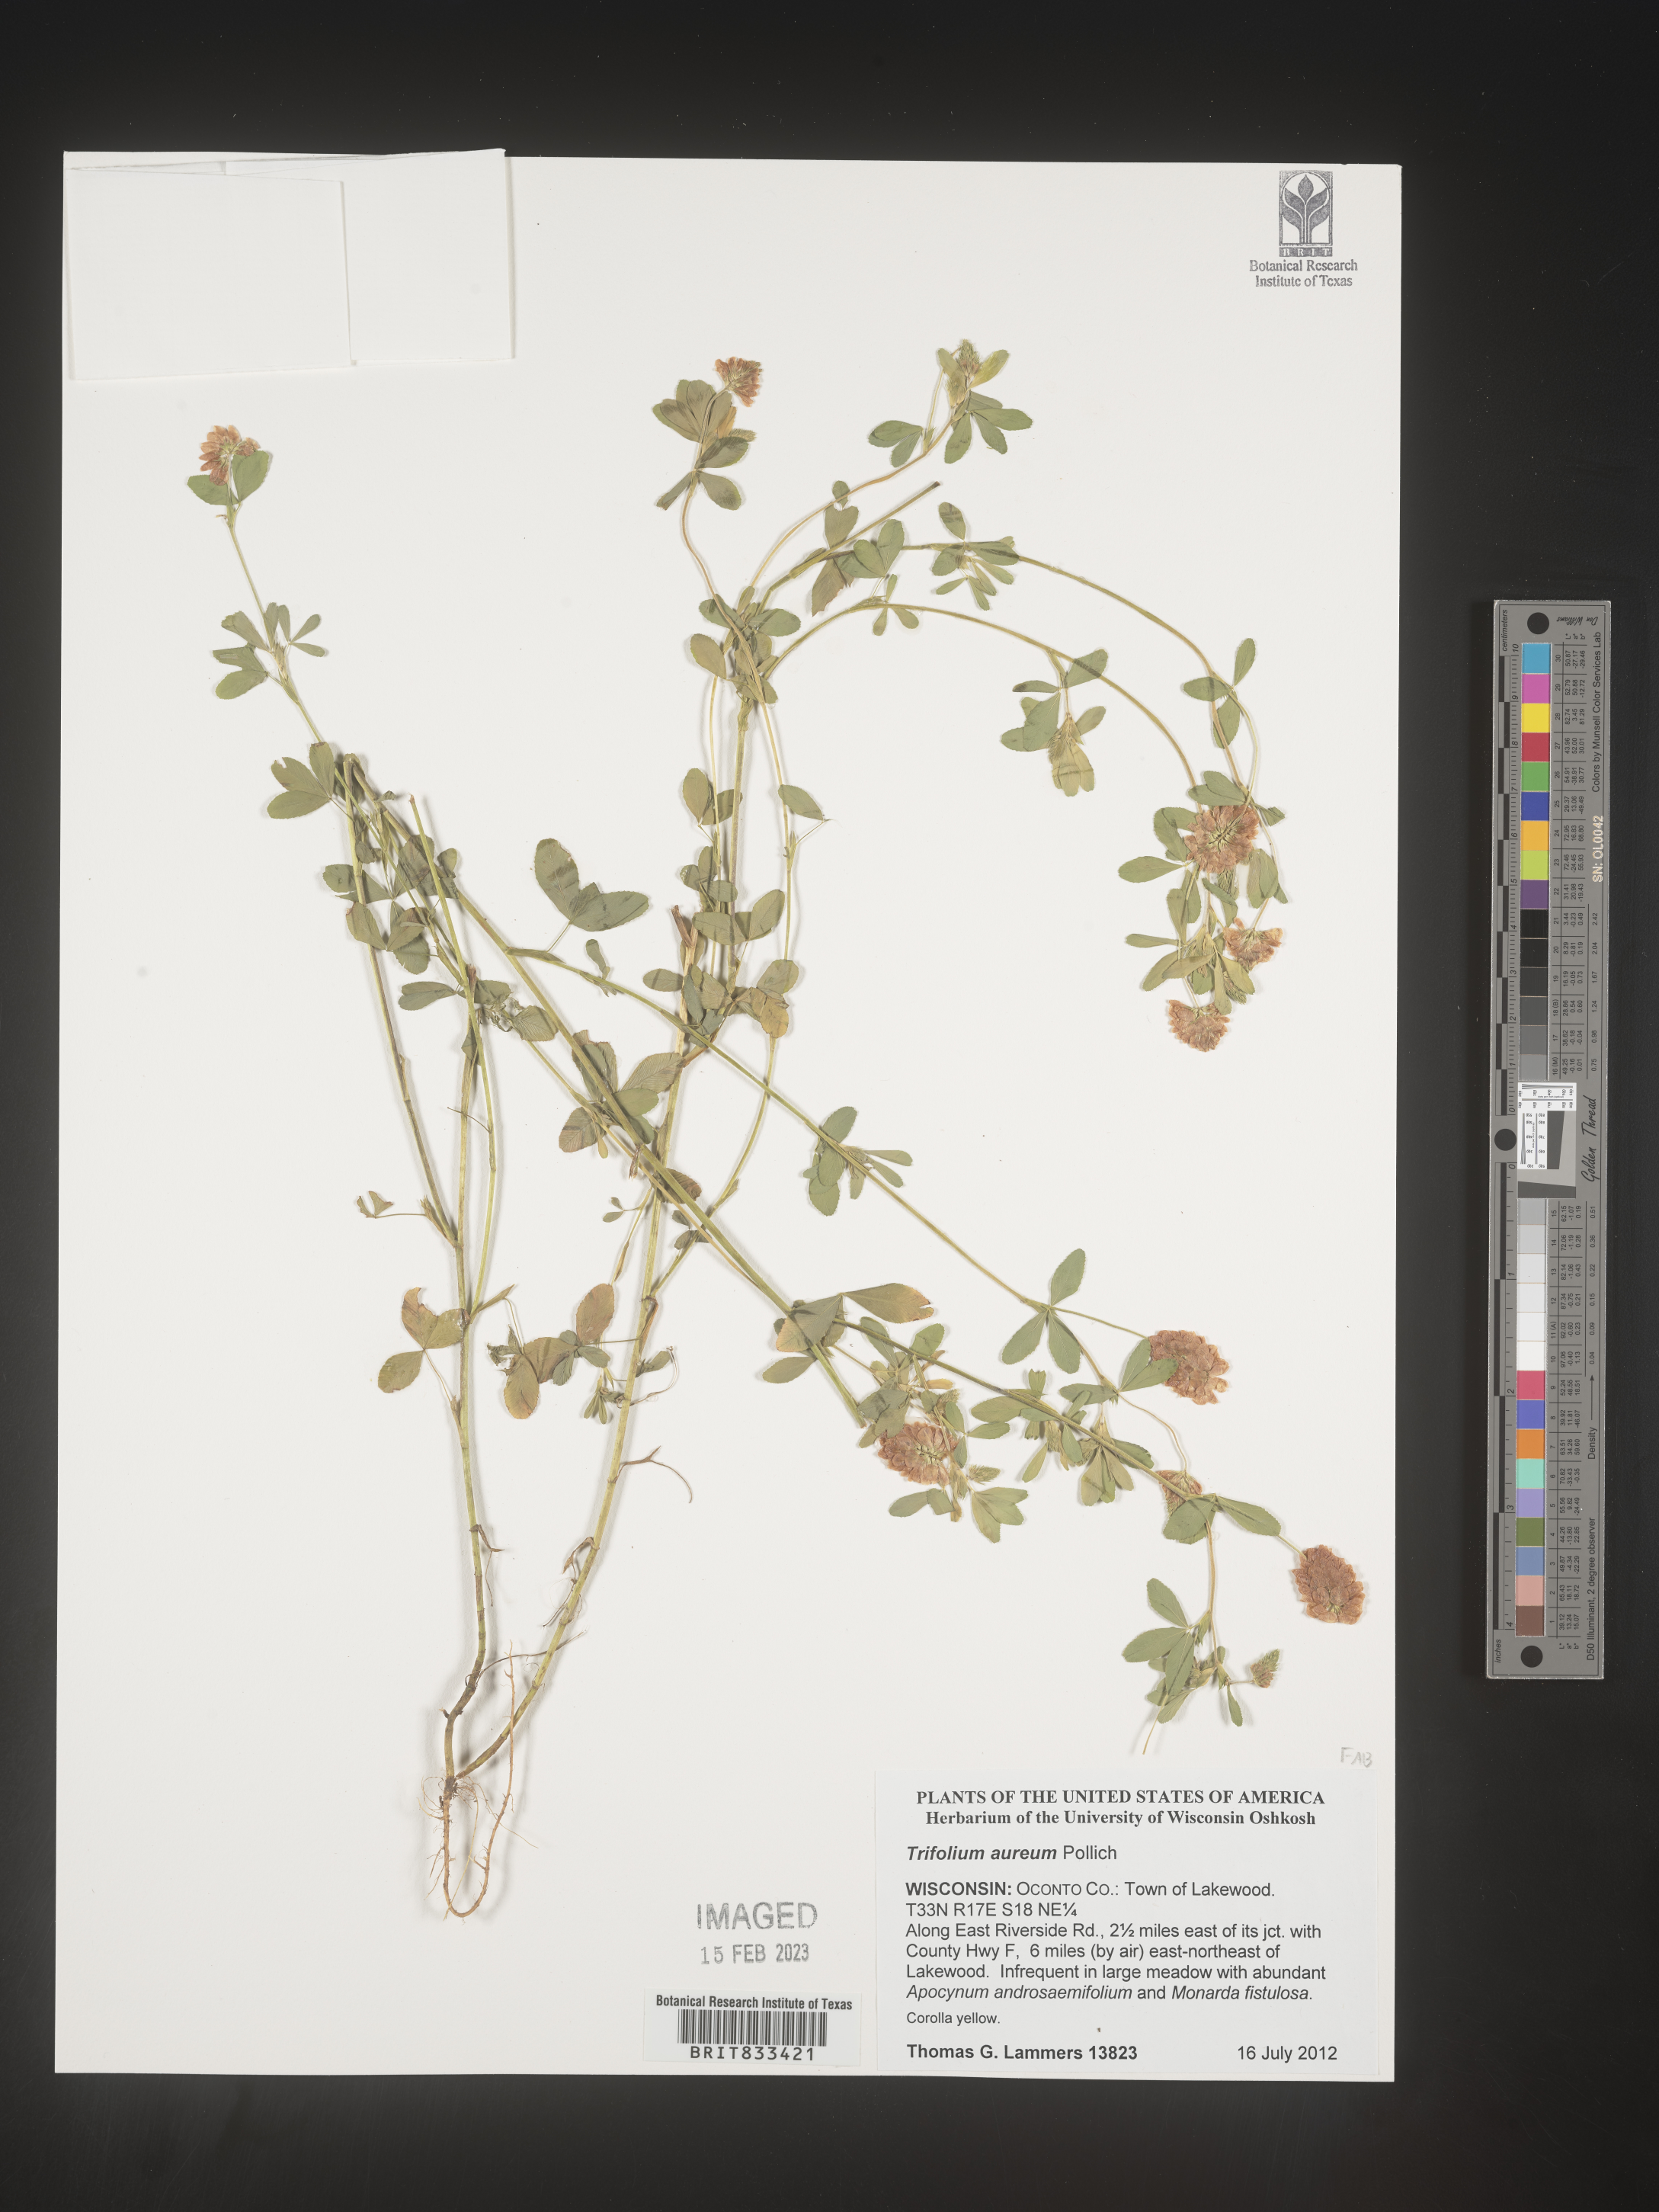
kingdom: Plantae
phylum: Tracheophyta
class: Magnoliopsida
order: Fabales
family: Fabaceae
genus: Trifolium
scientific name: Trifolium aureum
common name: Golden clover
